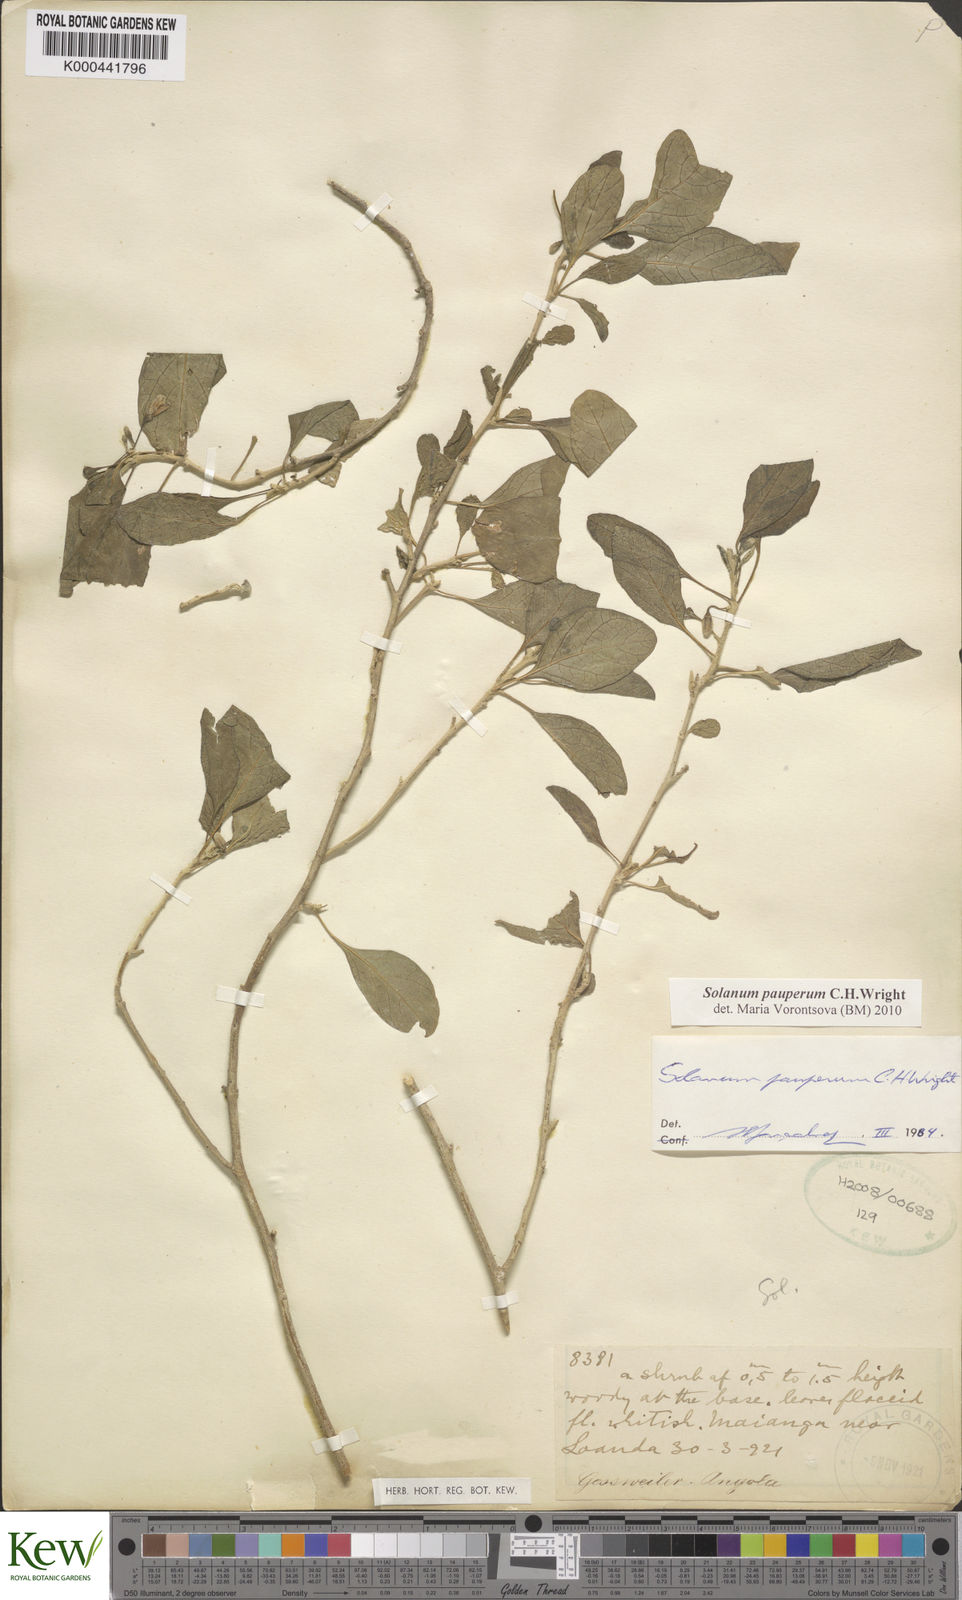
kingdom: Plantae
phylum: Tracheophyta
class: Magnoliopsida
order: Solanales
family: Solanaceae
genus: Solanum
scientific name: Solanum anomalum
